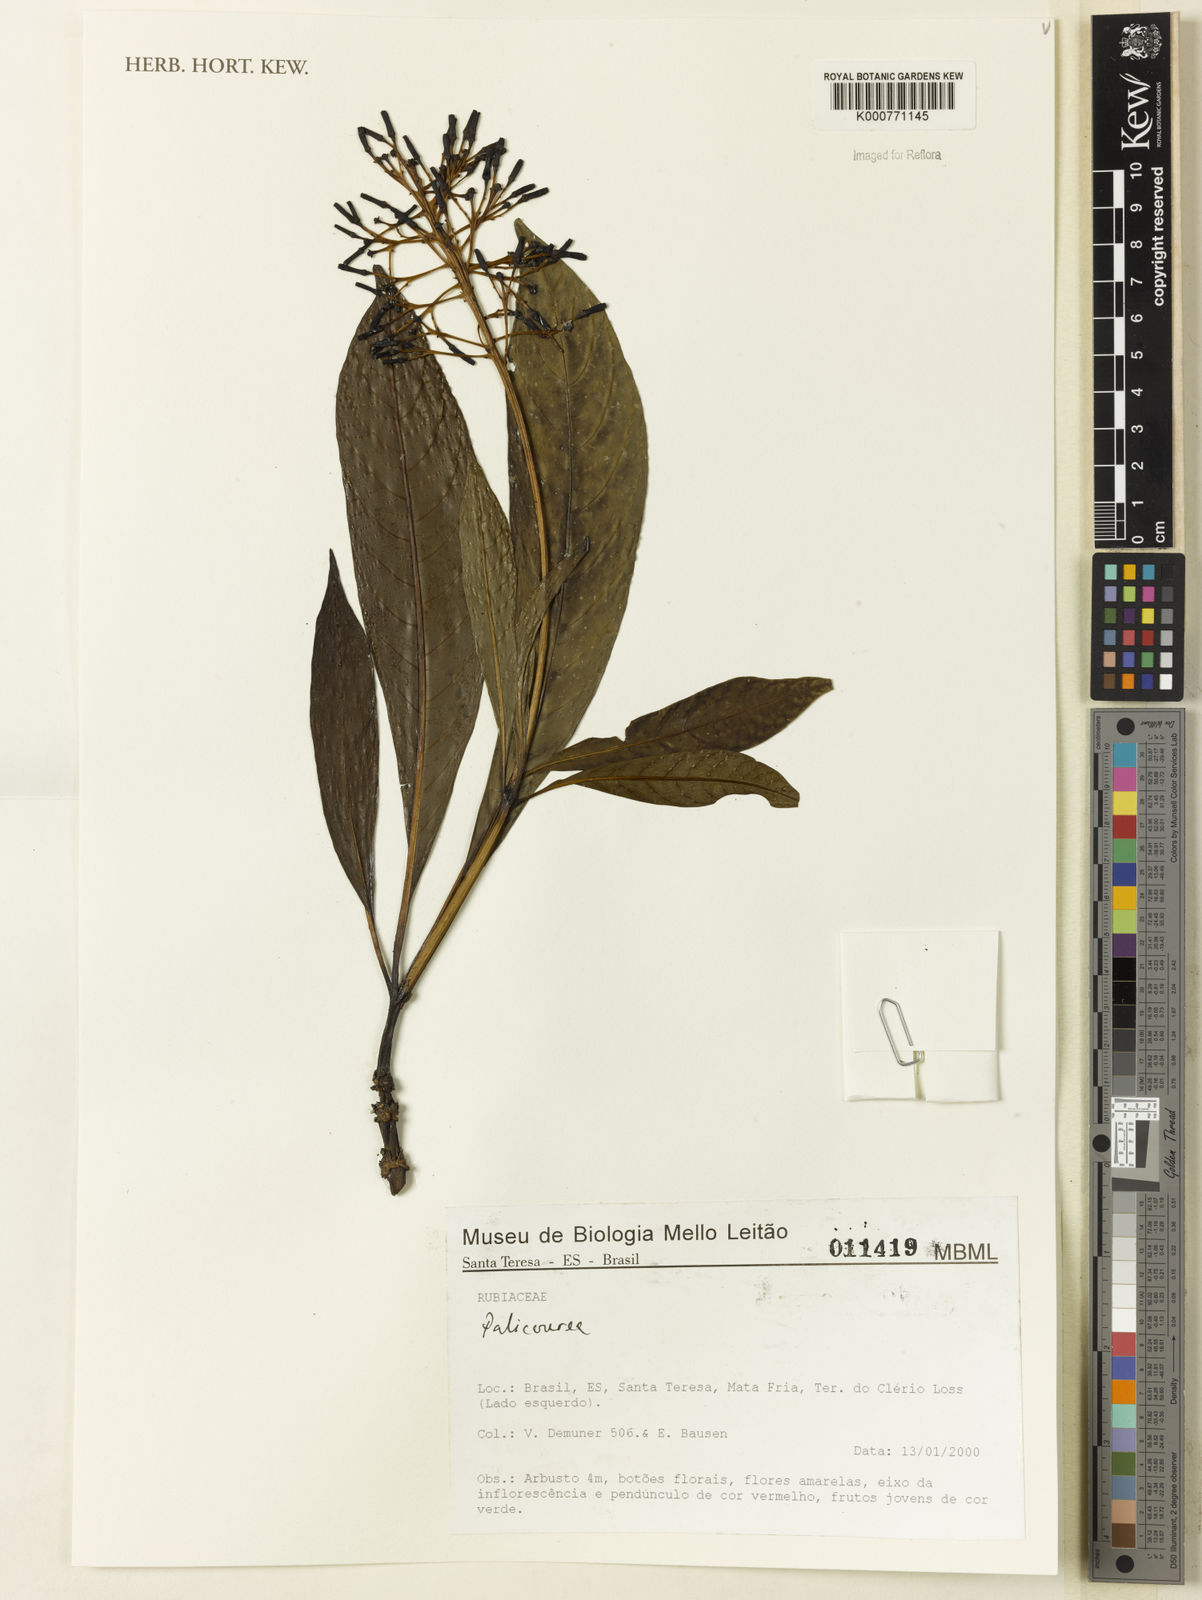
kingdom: Plantae
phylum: Tracheophyta
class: Magnoliopsida
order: Gentianales
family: Rubiaceae
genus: Palicourea
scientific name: Palicourea
